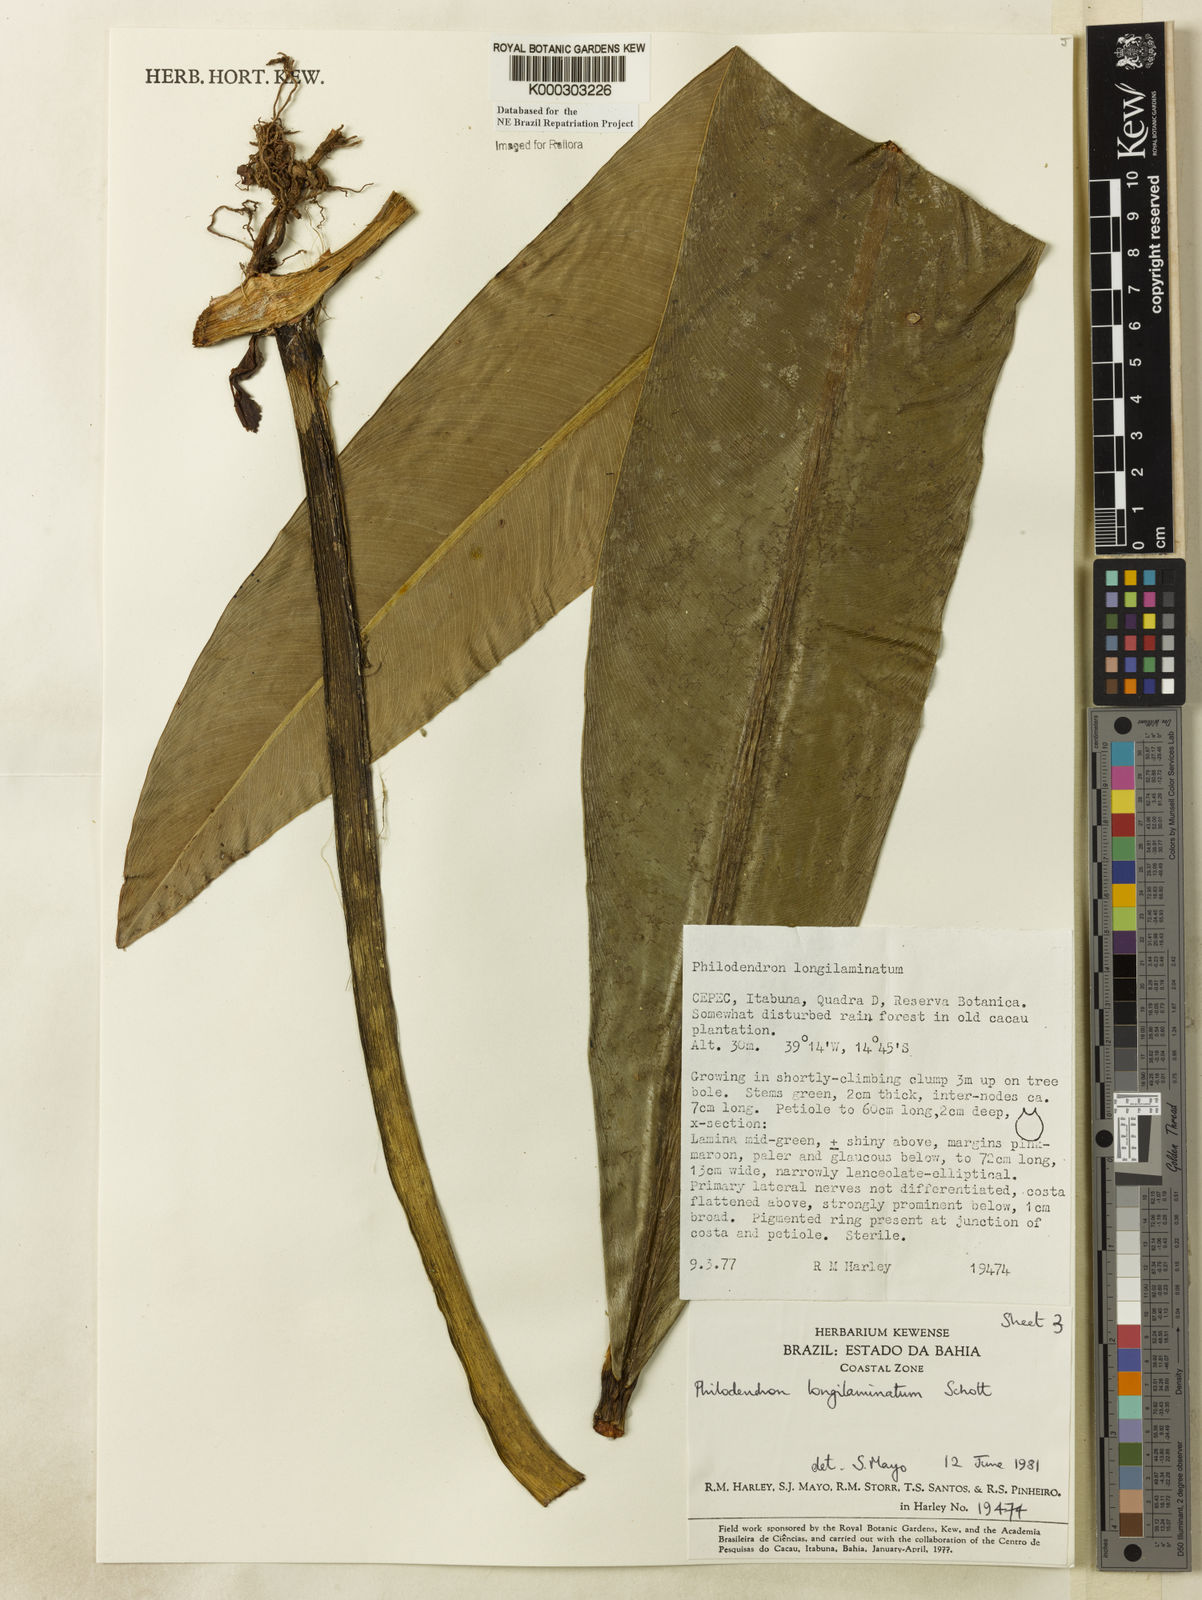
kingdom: Plantae
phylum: Tracheophyta
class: Liliopsida
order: Alismatales
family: Araceae
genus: Philodendron
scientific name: Philodendron longilaminatum
